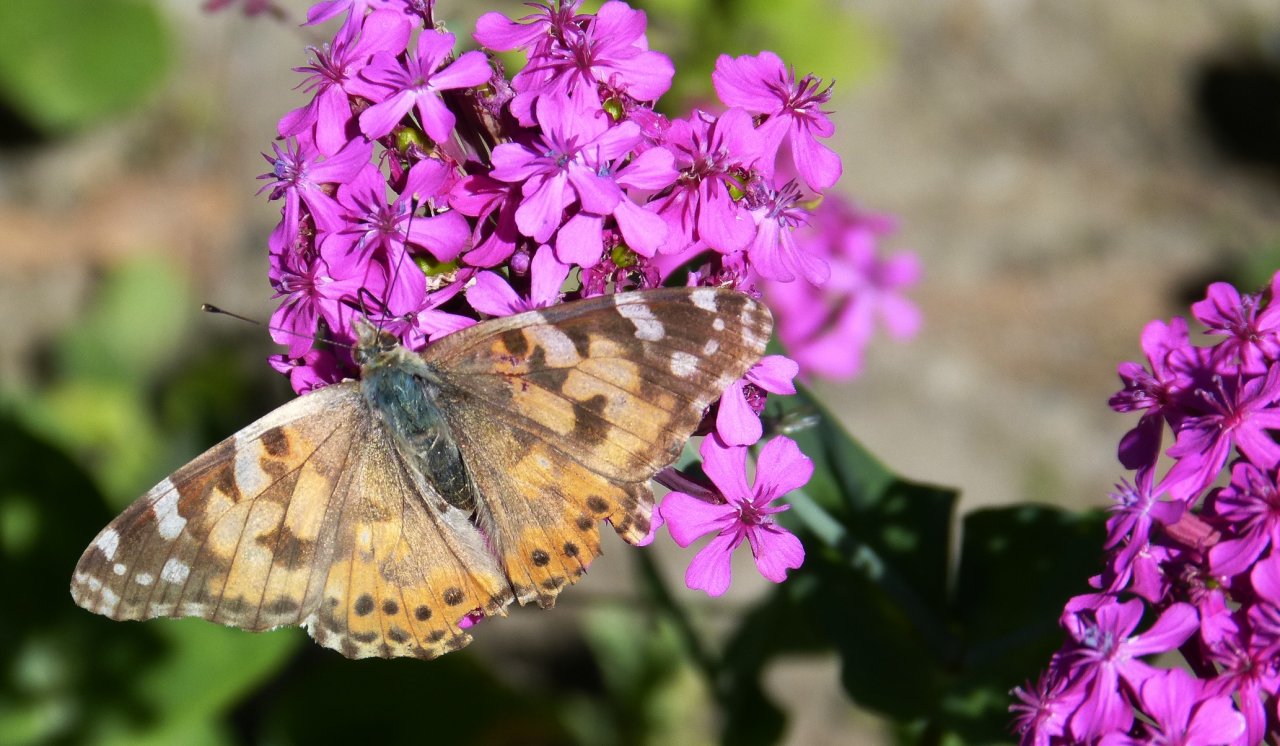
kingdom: Animalia
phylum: Arthropoda
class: Insecta
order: Lepidoptera
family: Nymphalidae
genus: Vanessa
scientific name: Vanessa cardui
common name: Painted Lady
